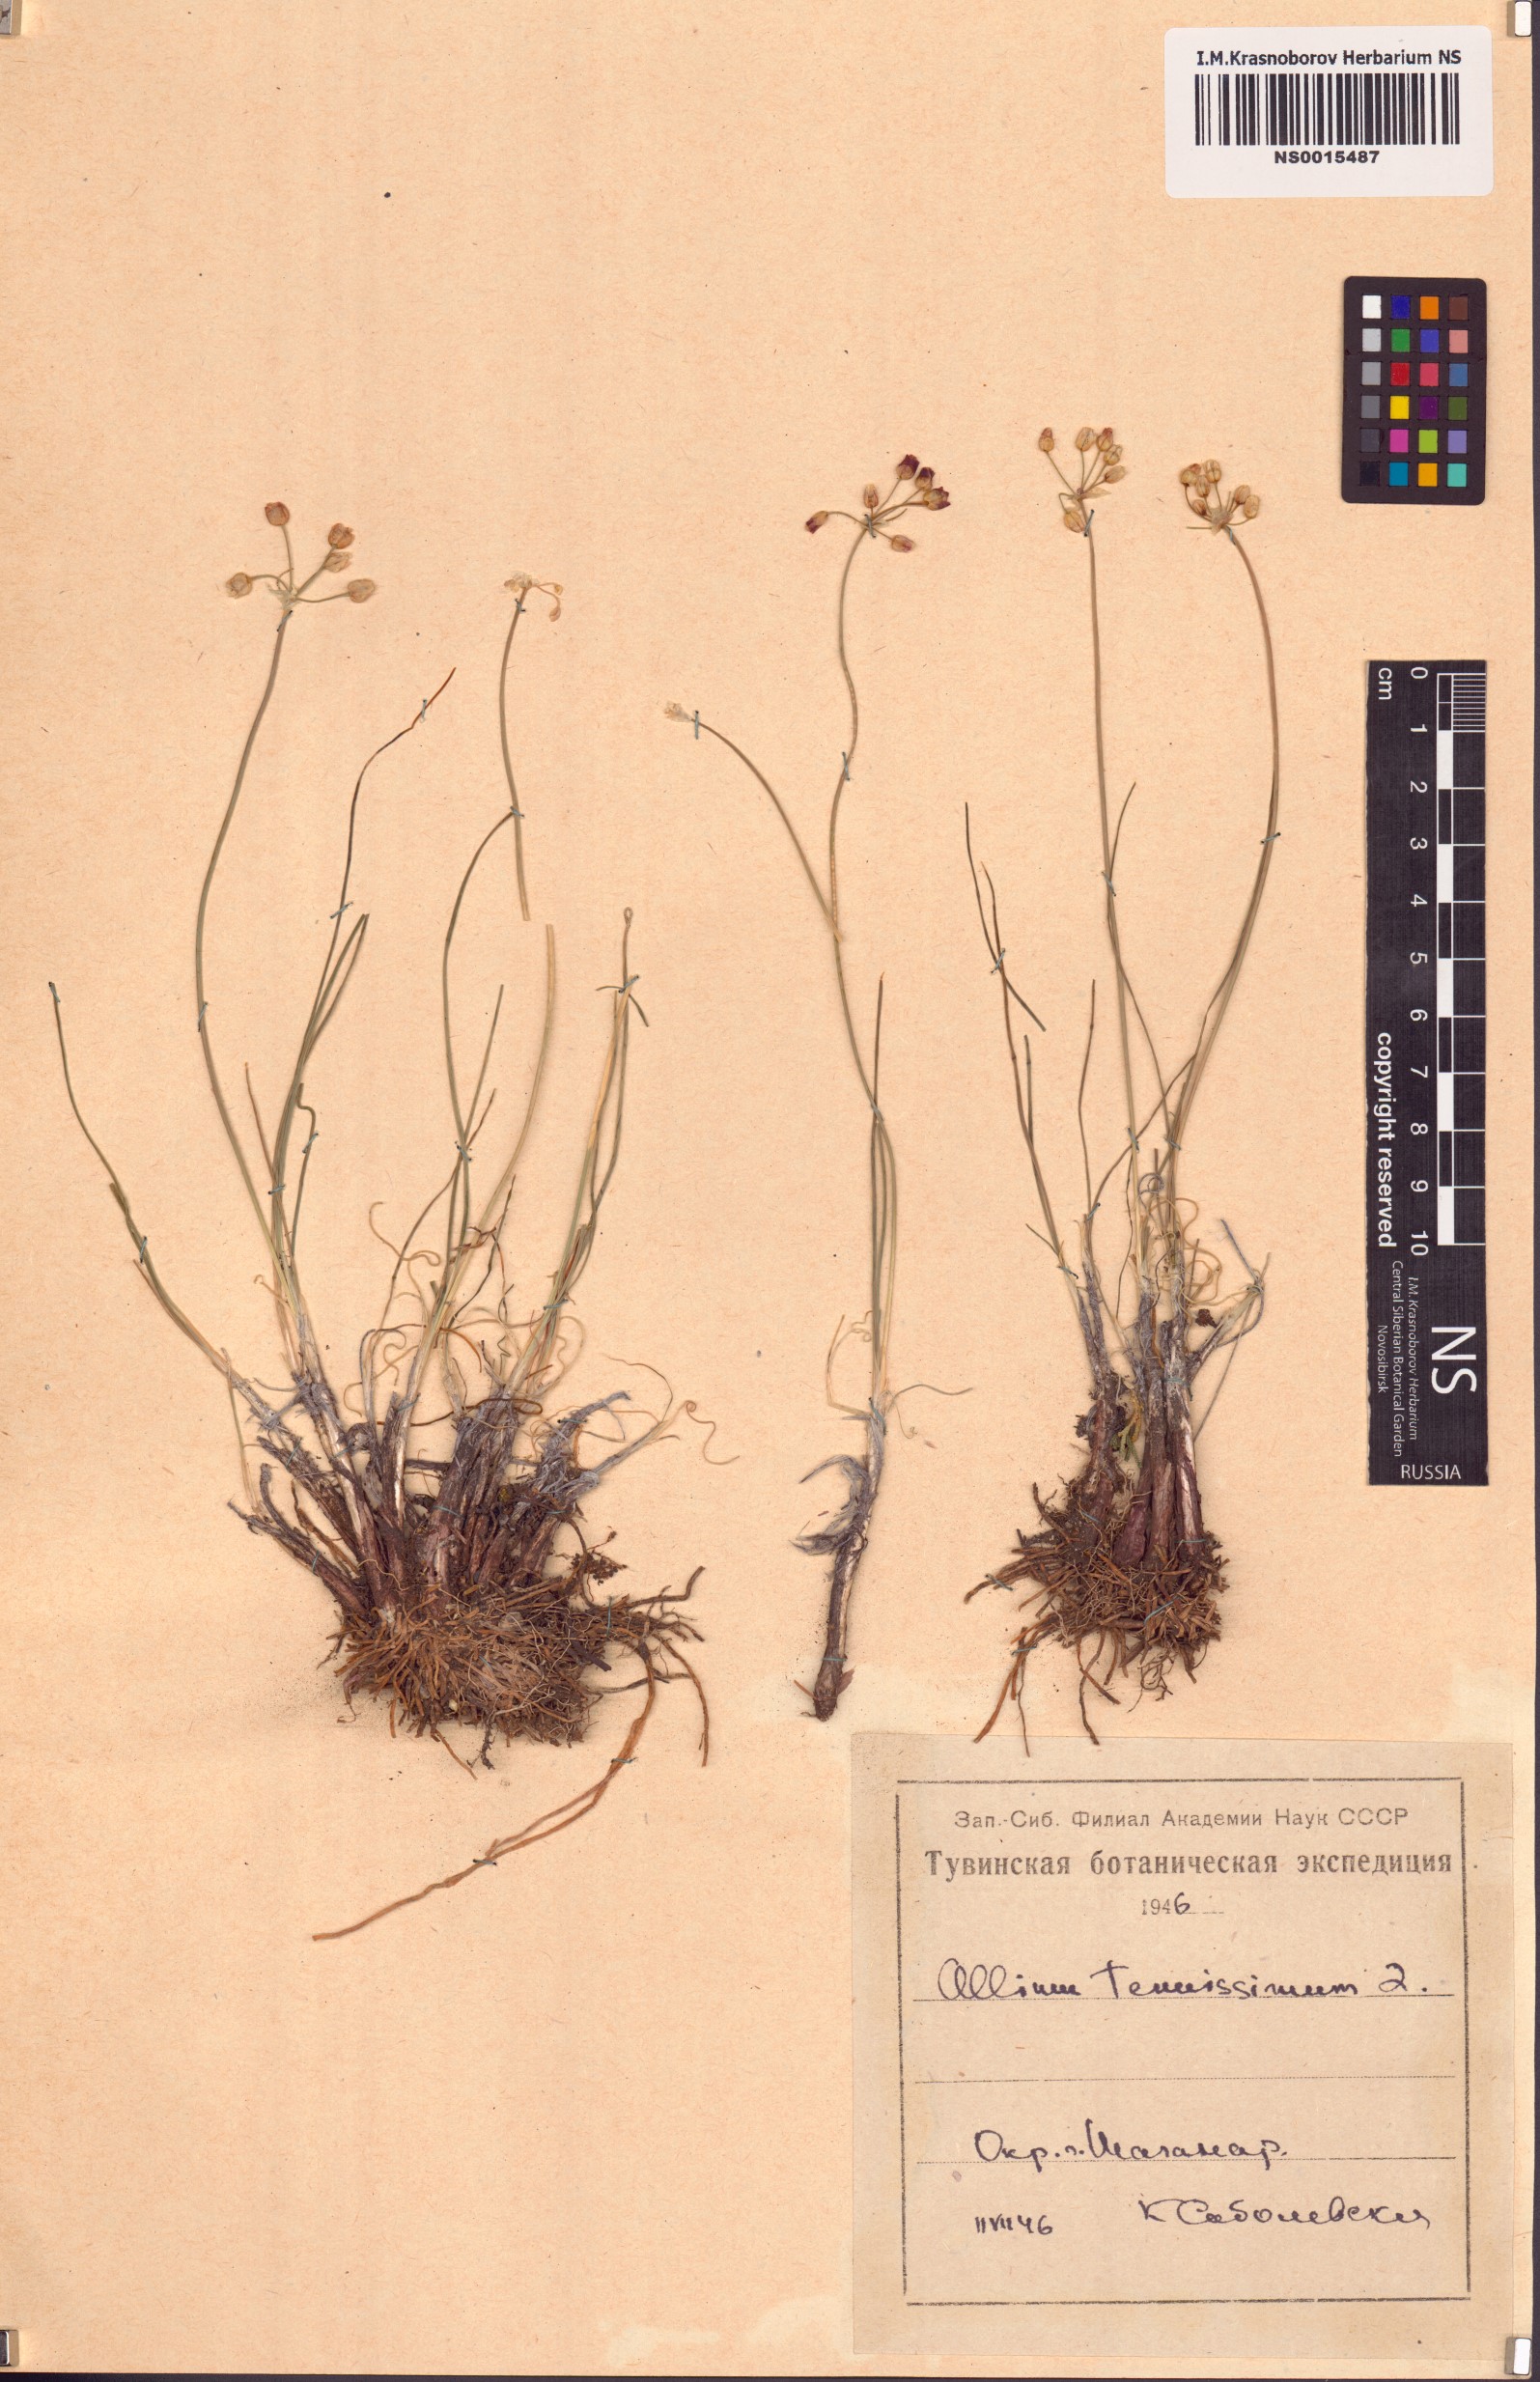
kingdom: Plantae
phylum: Tracheophyta
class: Liliopsida
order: Asparagales
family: Amaryllidaceae
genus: Allium
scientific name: Allium tenuissimum
